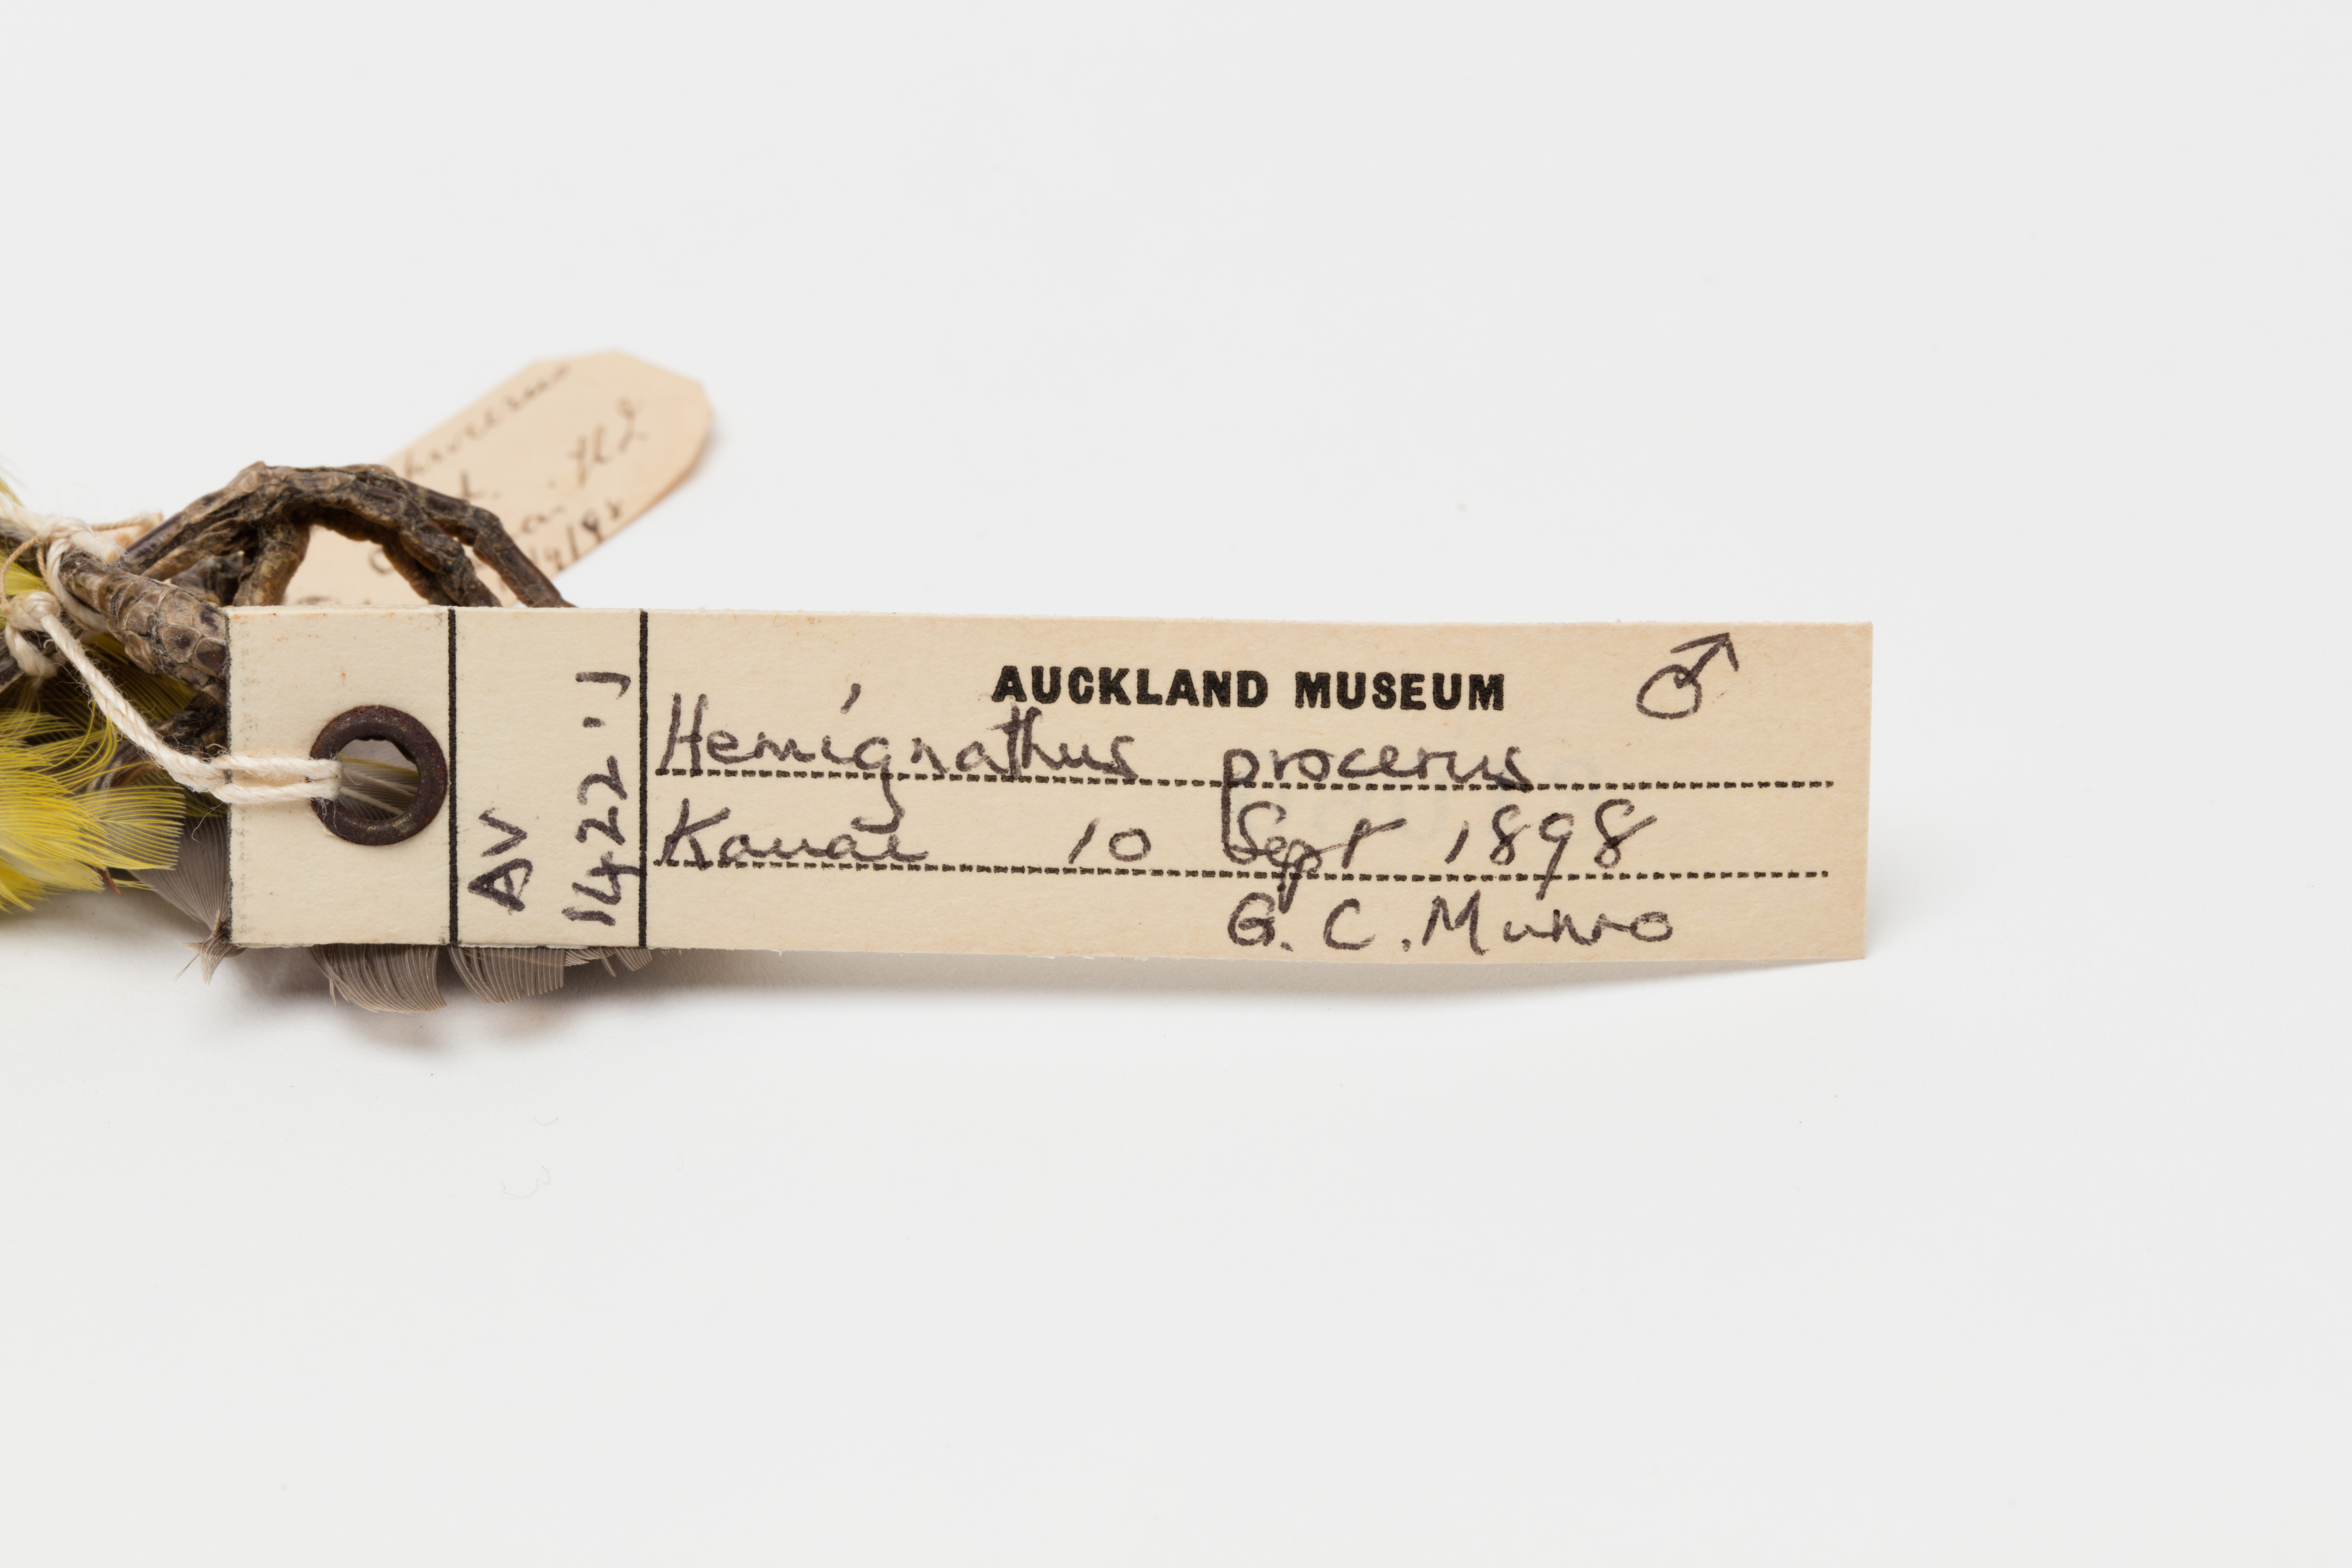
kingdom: Animalia
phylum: Chordata
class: Aves
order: Passeriformes
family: Fringillidae
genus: Akialoa
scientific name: Akialoa obscura
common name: Lesser akialoa
